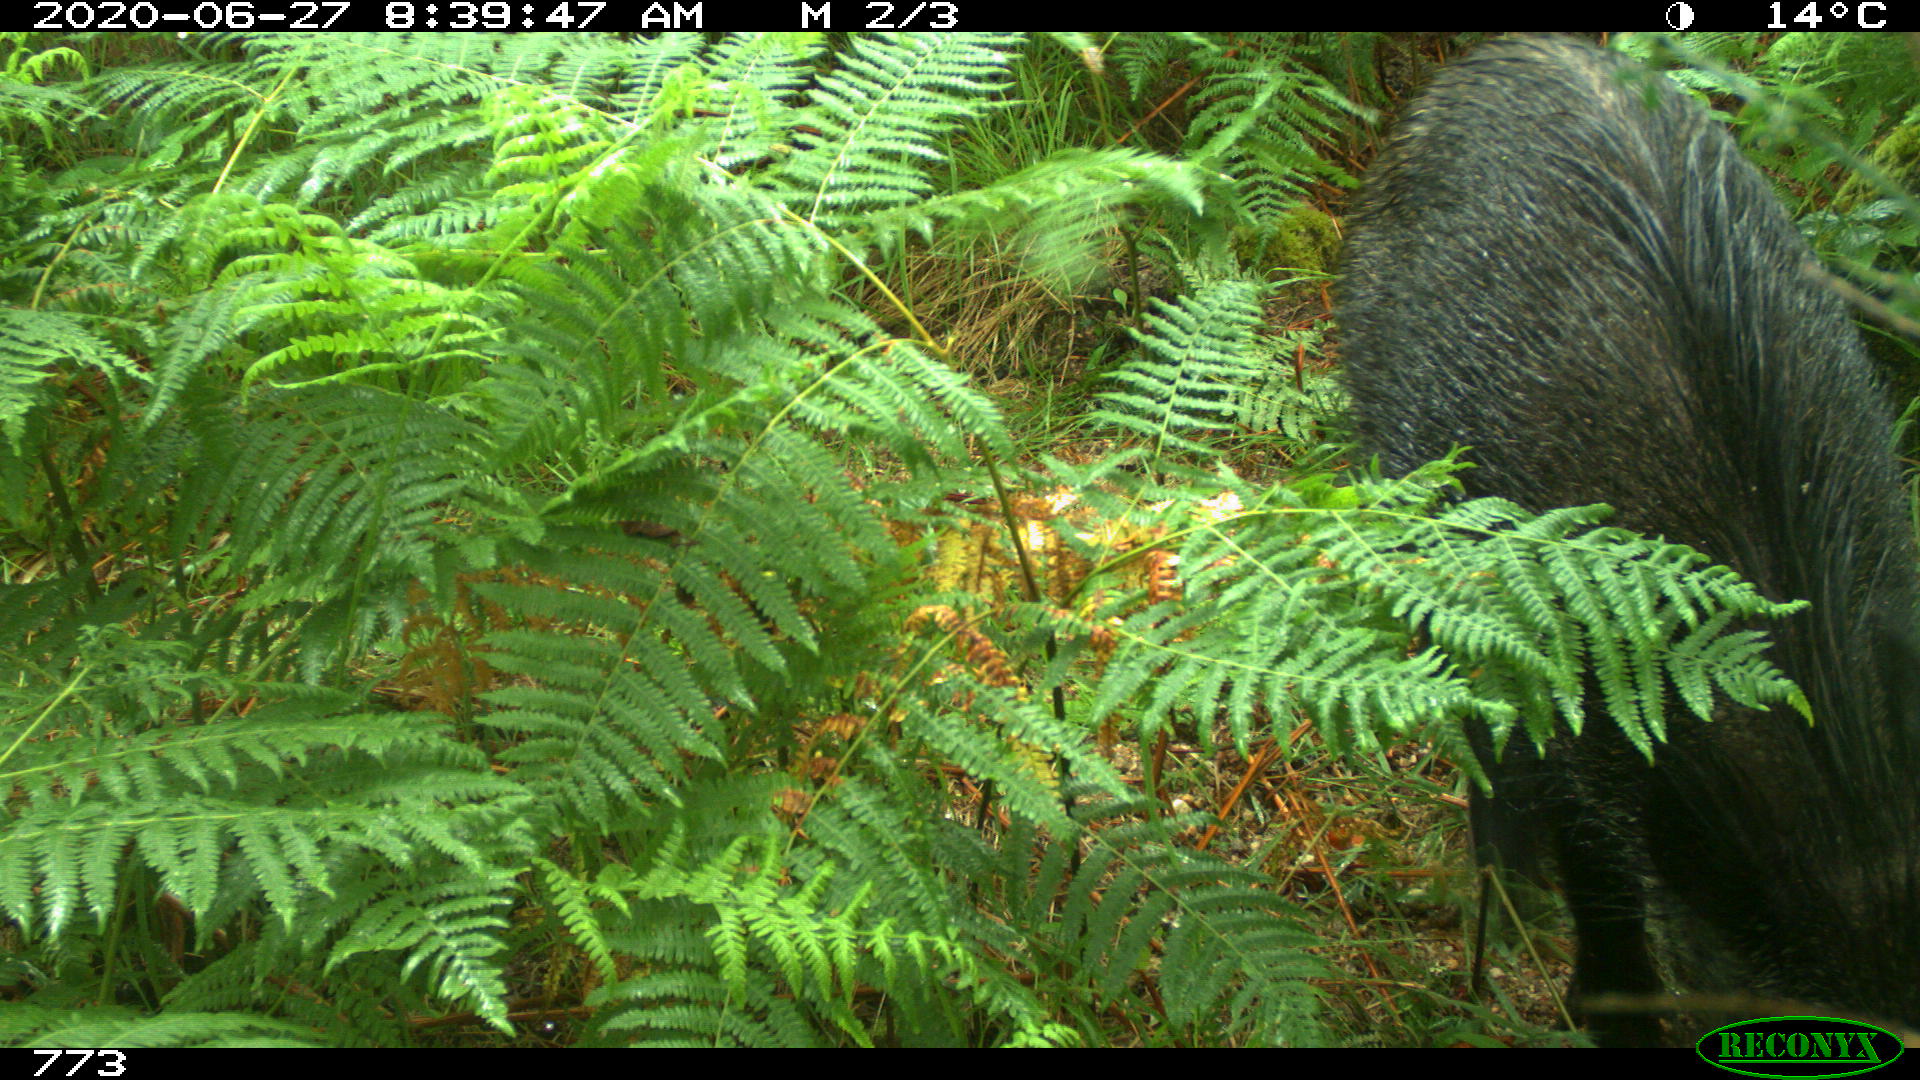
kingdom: Animalia
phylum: Chordata
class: Mammalia
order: Artiodactyla
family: Suidae
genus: Sus
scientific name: Sus scrofa
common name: Wild boar
